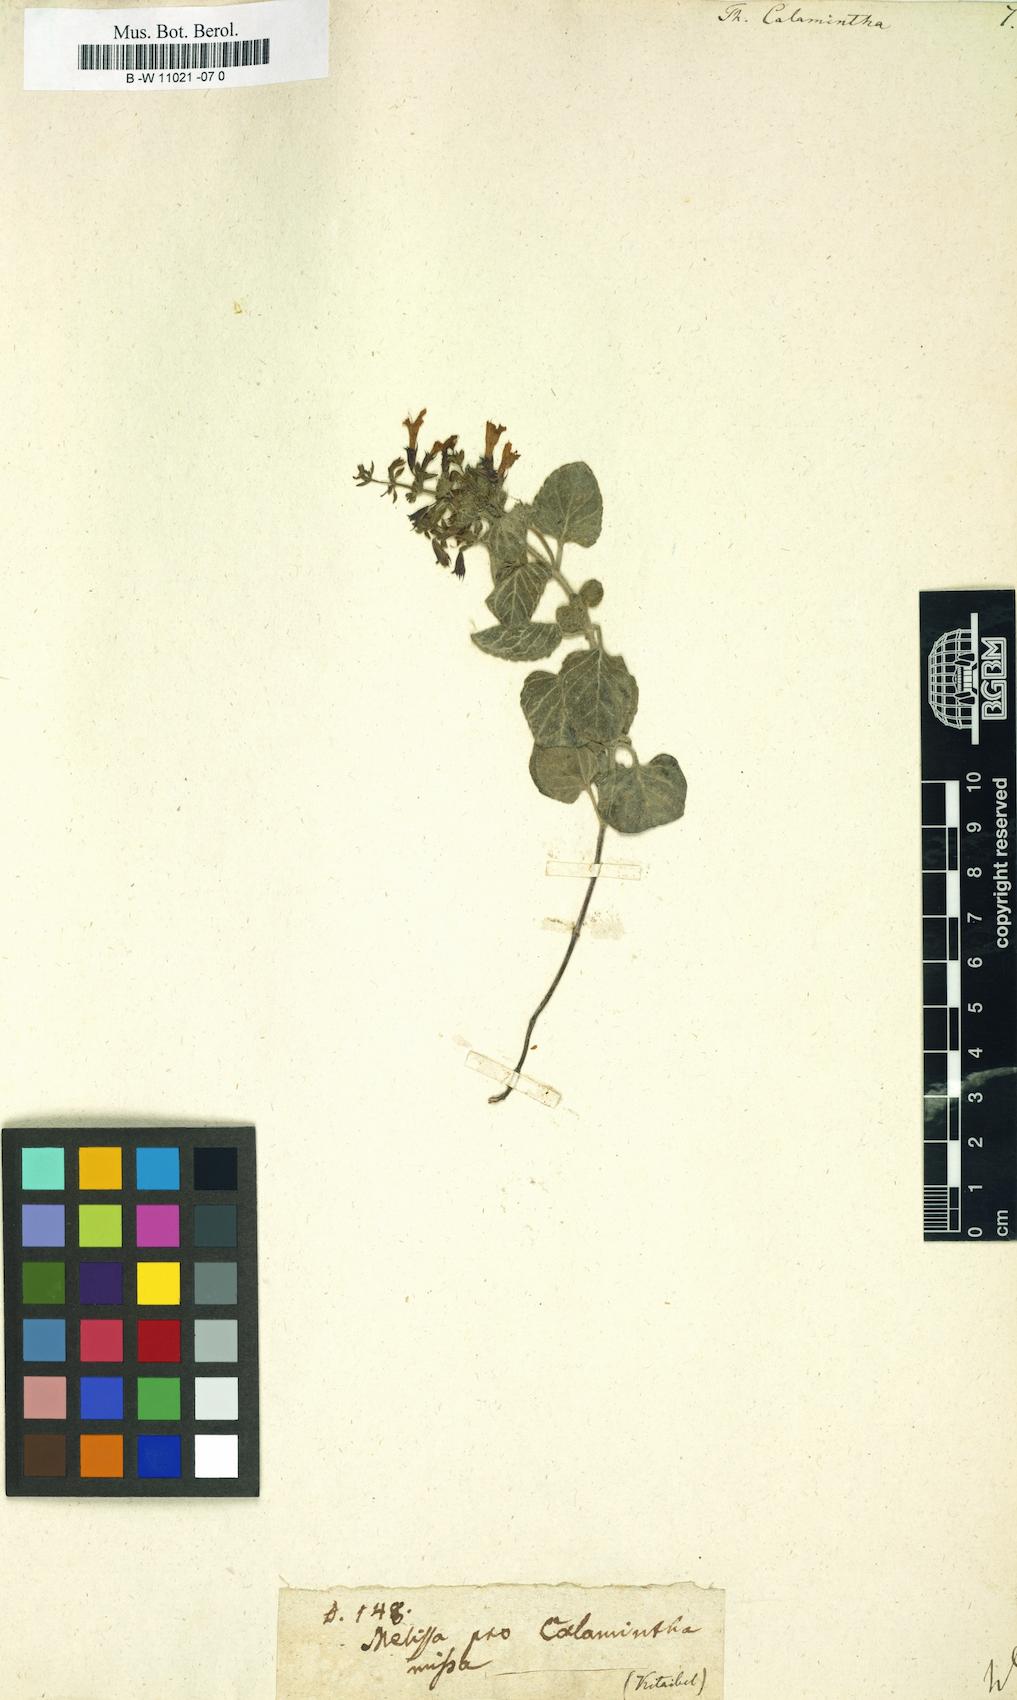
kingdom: Plantae
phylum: Tracheophyta
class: Magnoliopsida
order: Lamiales
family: Lamiaceae
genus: Clinopodium
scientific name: Clinopodium nepeta
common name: Lesser calamint
